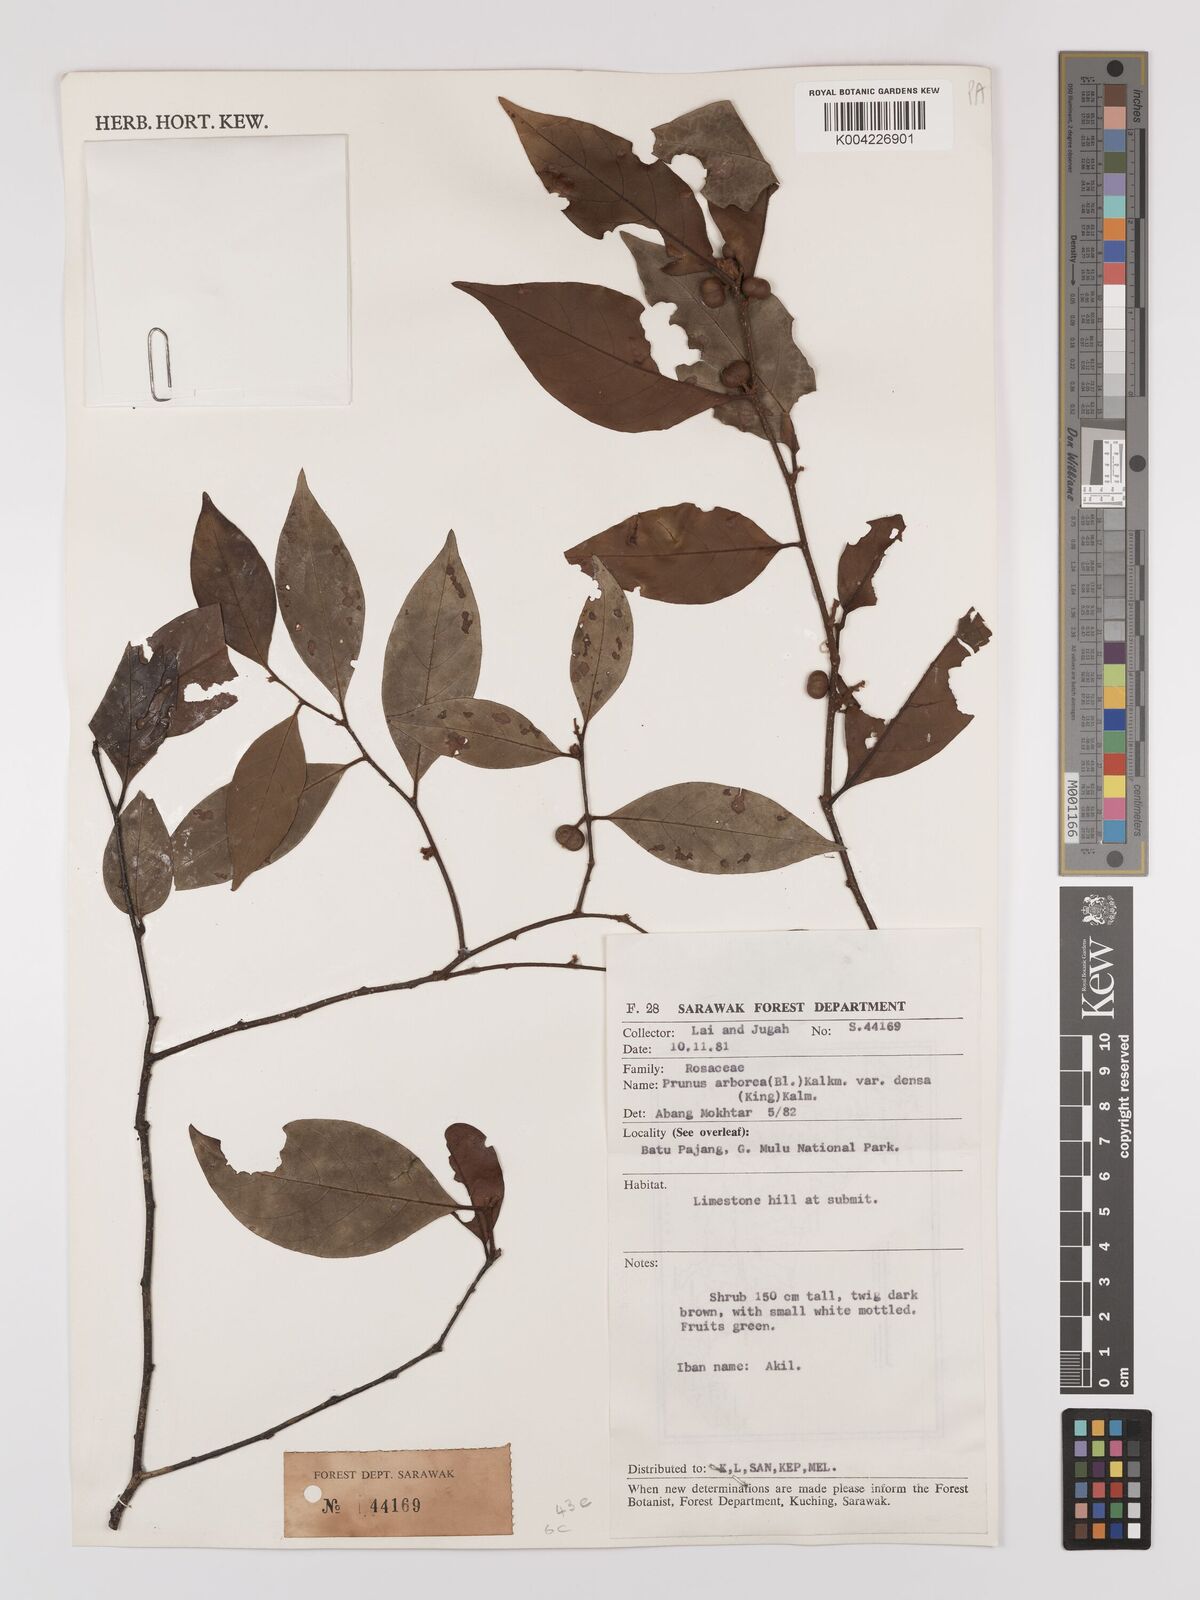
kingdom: Plantae
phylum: Tracheophyta
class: Magnoliopsida
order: Rosales
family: Rosaceae
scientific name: Rosaceae
